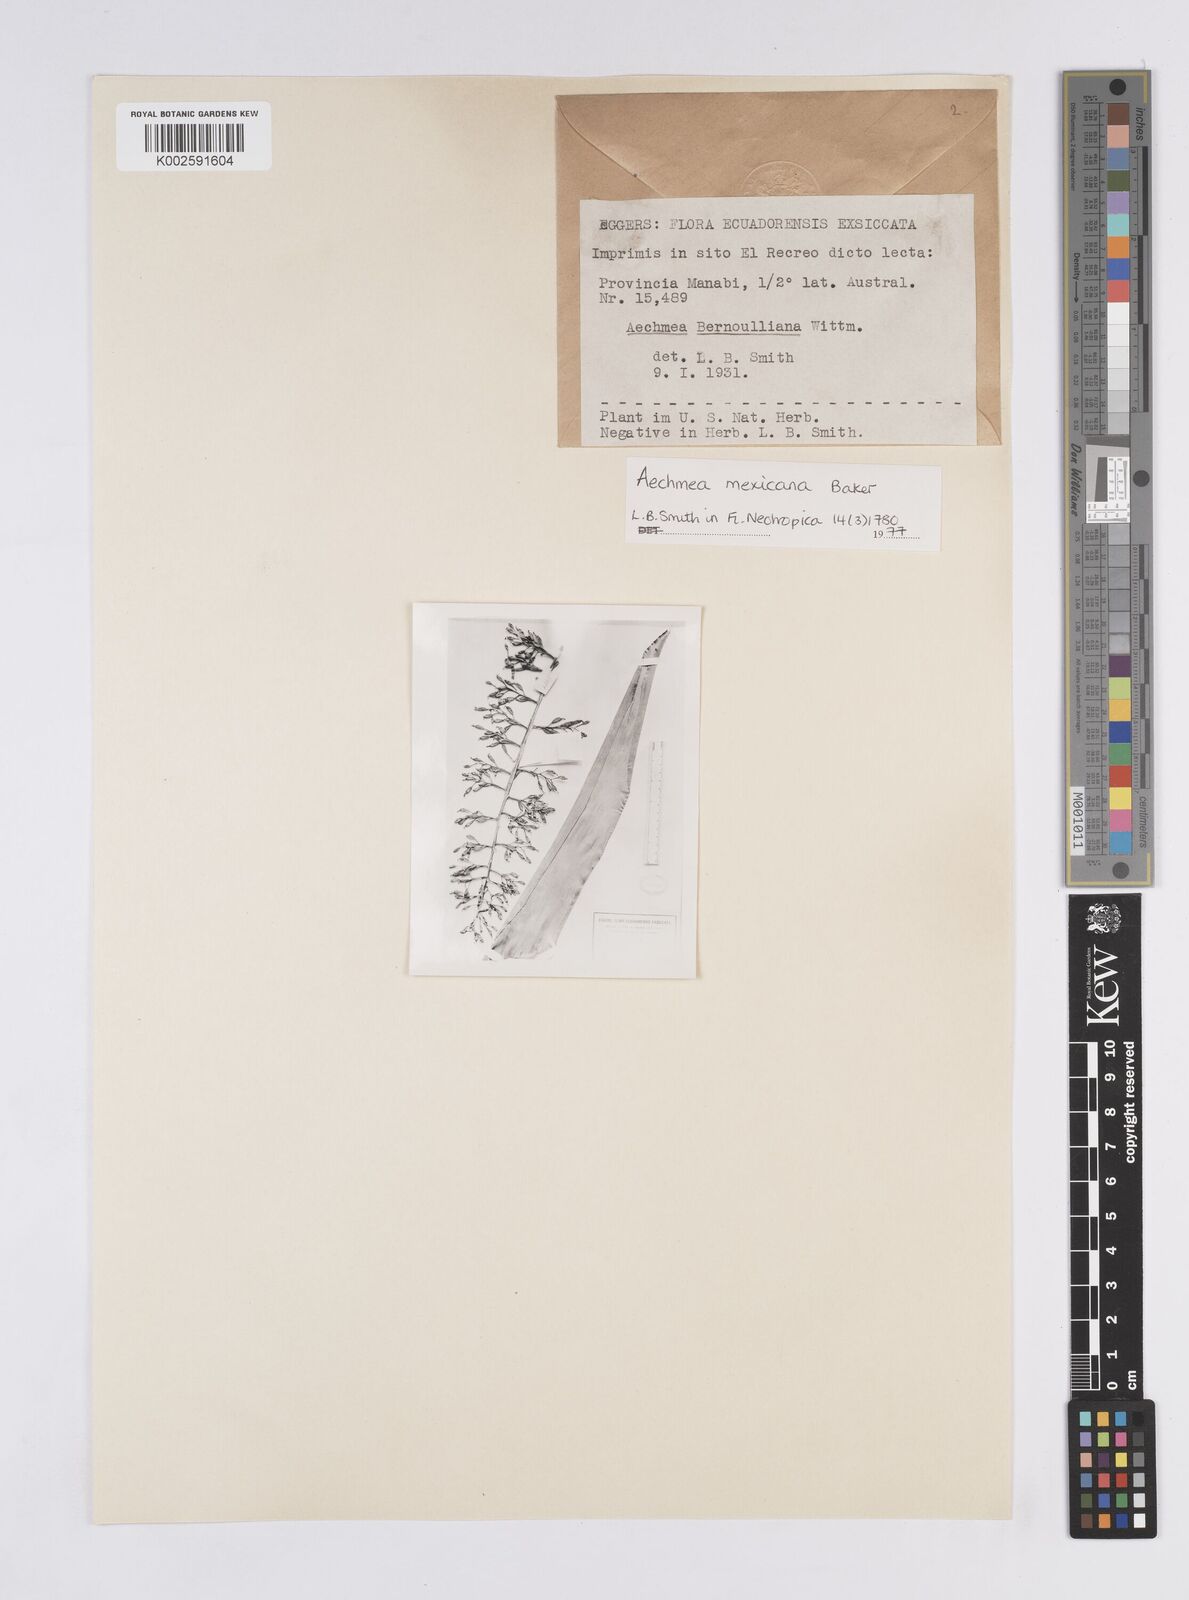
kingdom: Plantae
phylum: Tracheophyta
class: Liliopsida
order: Poales
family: Bromeliaceae
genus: Aechmea
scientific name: Aechmea mexicana
